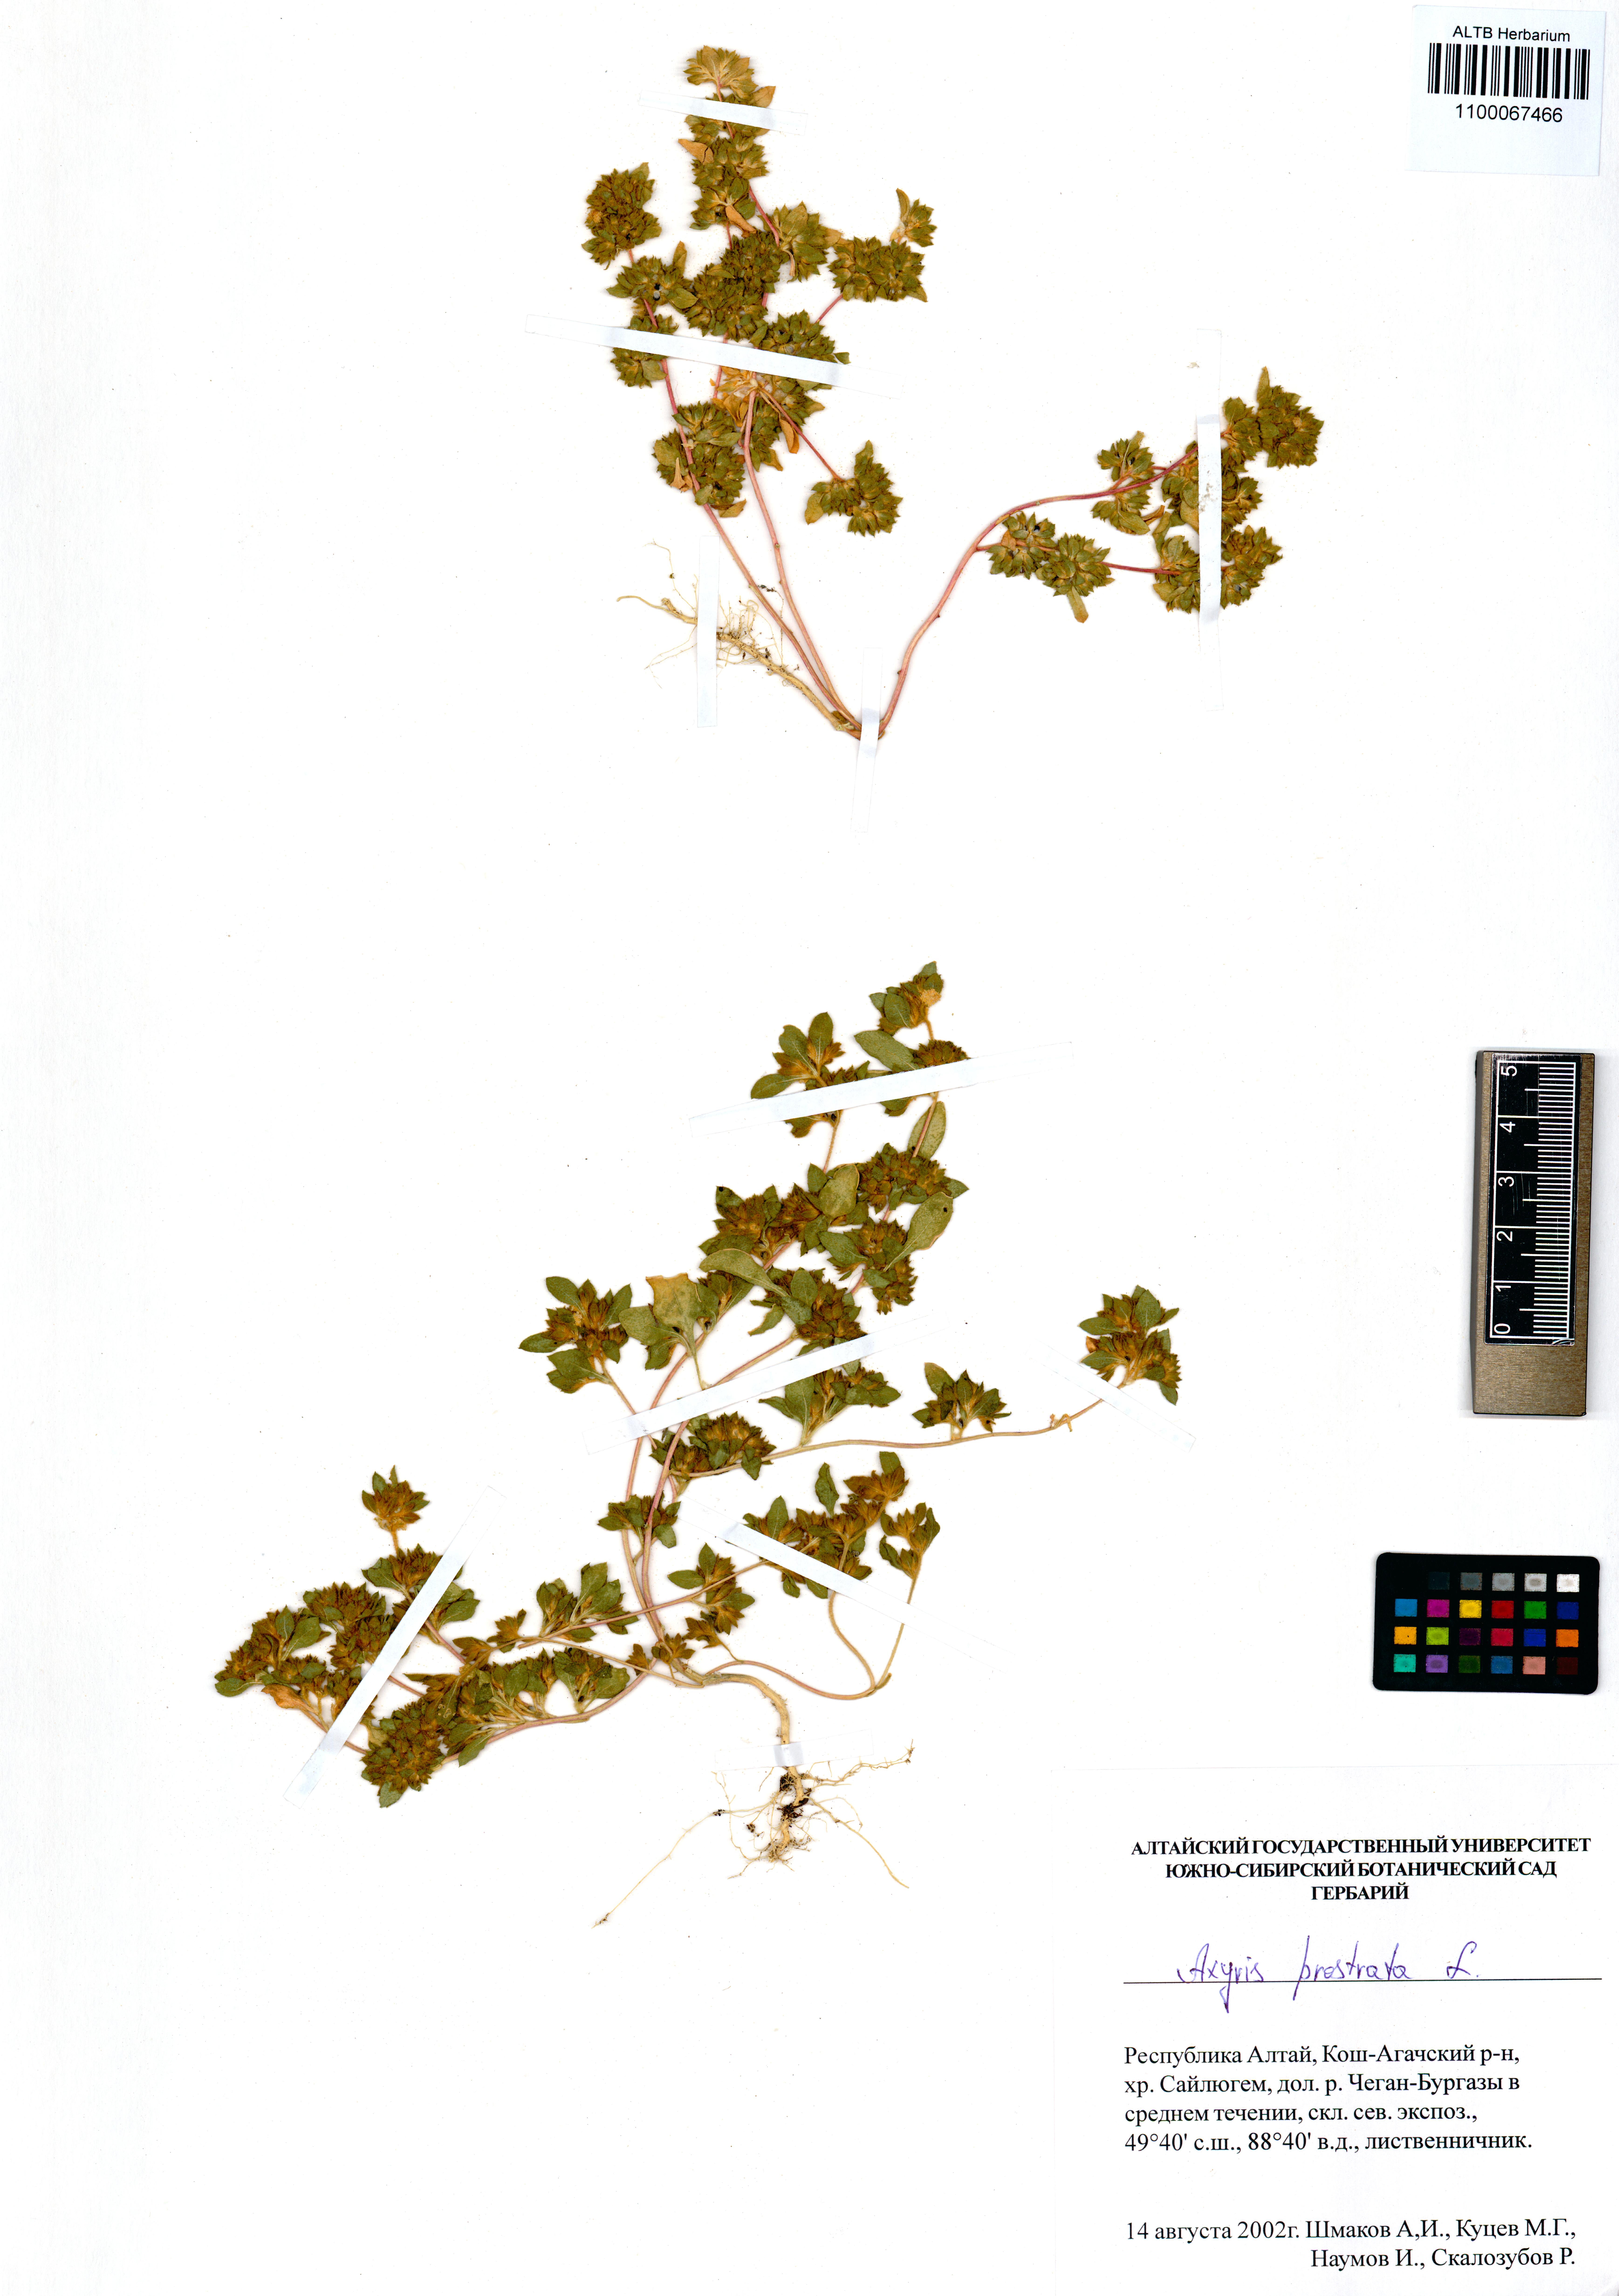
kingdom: Plantae
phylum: Tracheophyta
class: Magnoliopsida
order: Caryophyllales
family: Amaranthaceae
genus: Axyris
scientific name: Axyris prostrata
